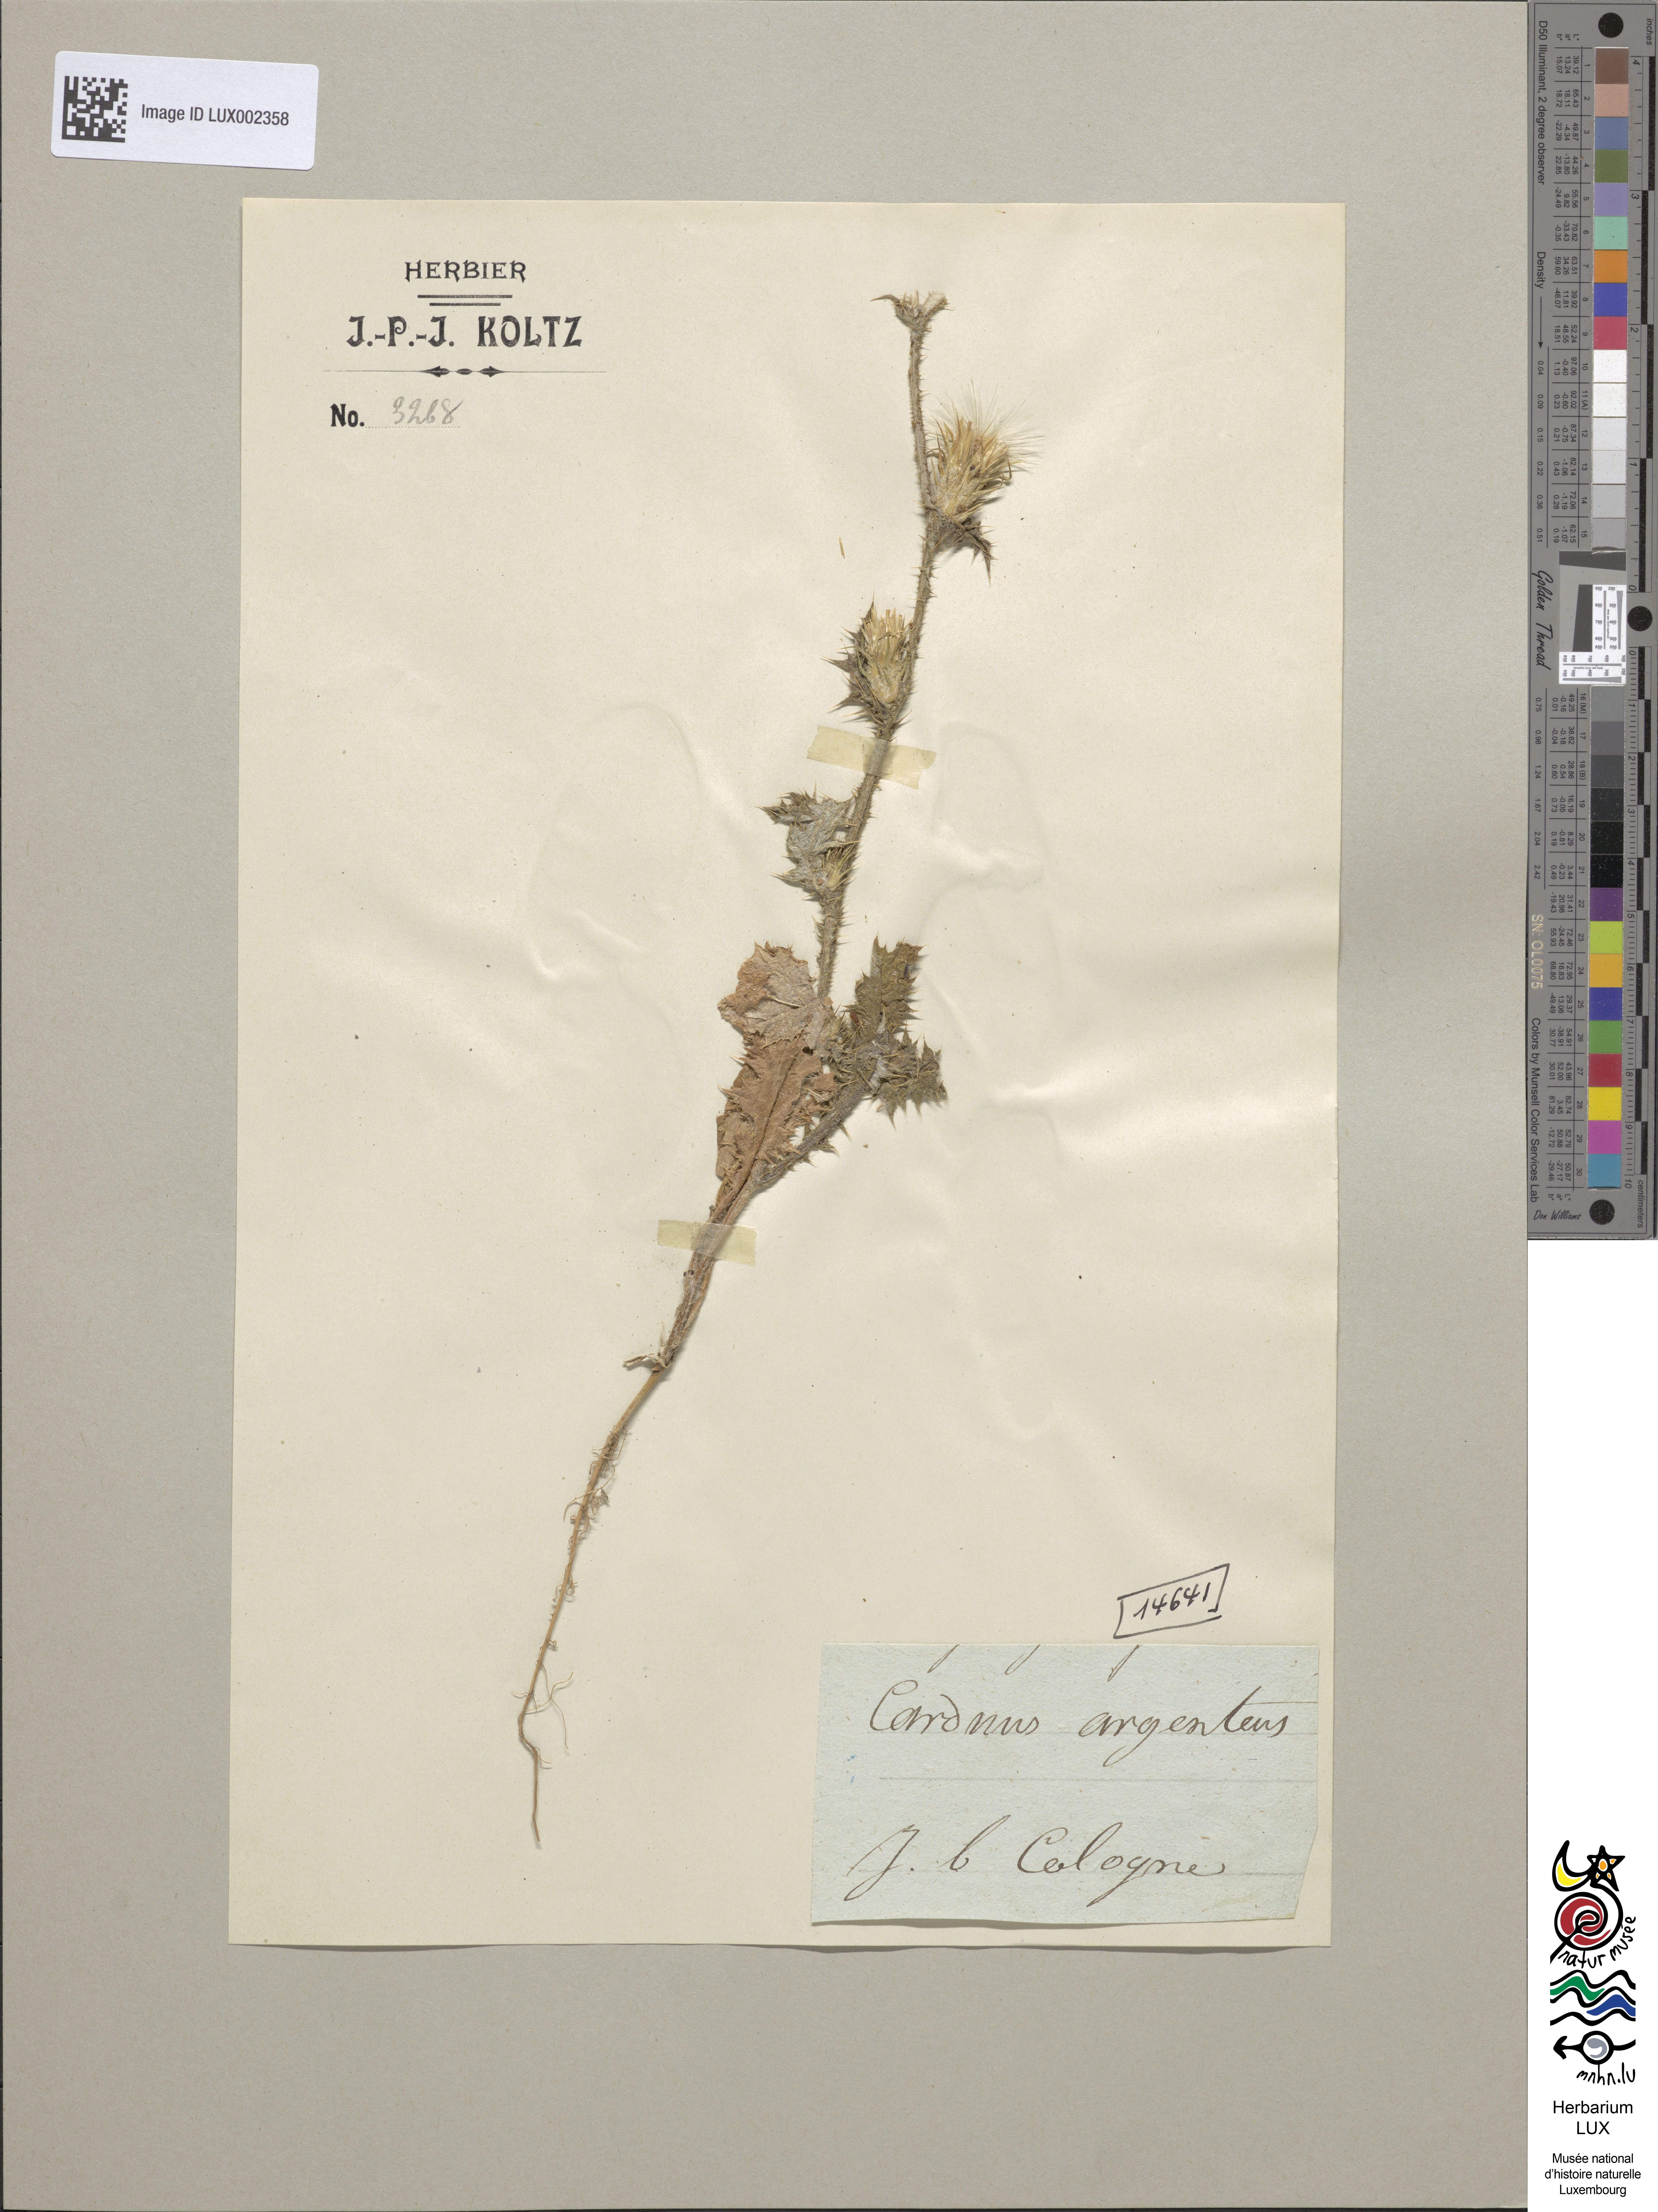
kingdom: Plantae
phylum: Tracheophyta
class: Magnoliopsida
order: Asterales
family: Asteraceae
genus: Carduus
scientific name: Carduus argentatus
